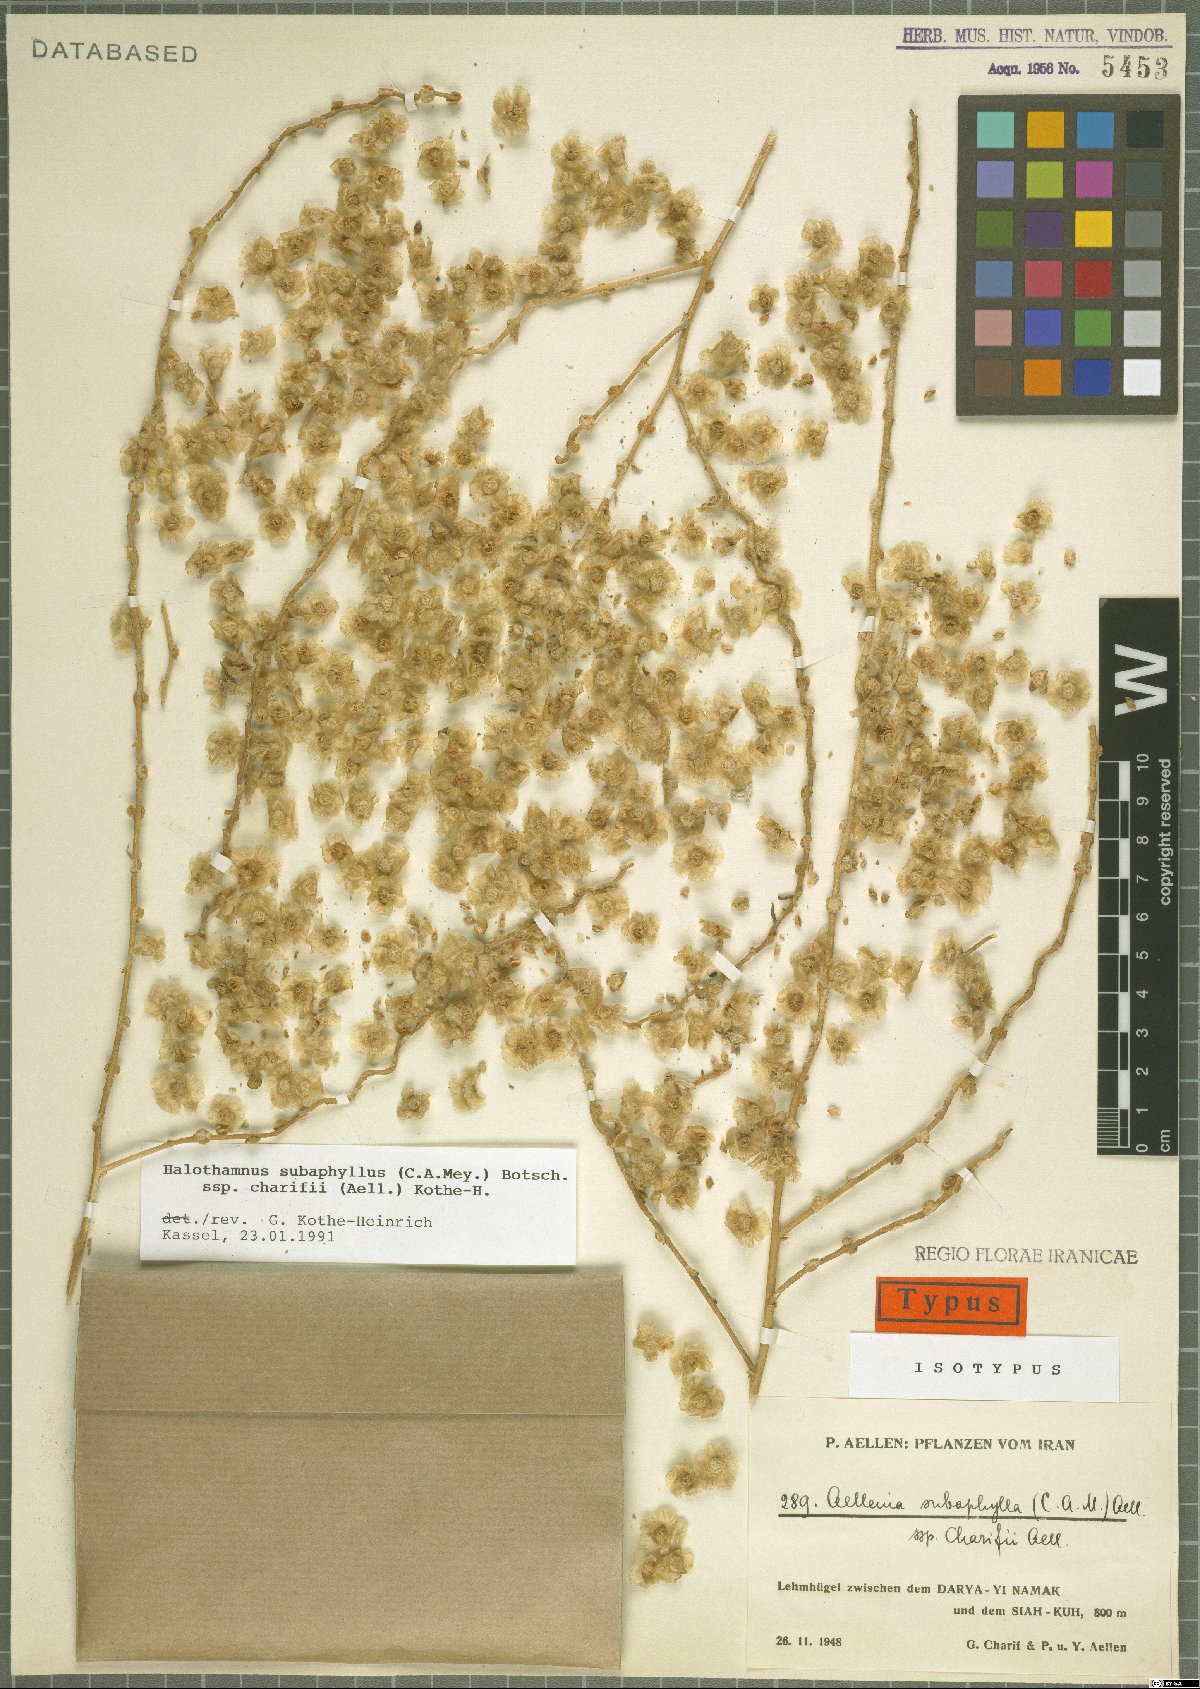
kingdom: Plantae
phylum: Tracheophyta
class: Magnoliopsida
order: Caryophyllales
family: Amaranthaceae
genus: Halothamnus
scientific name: Halothamnus subaphyllus
